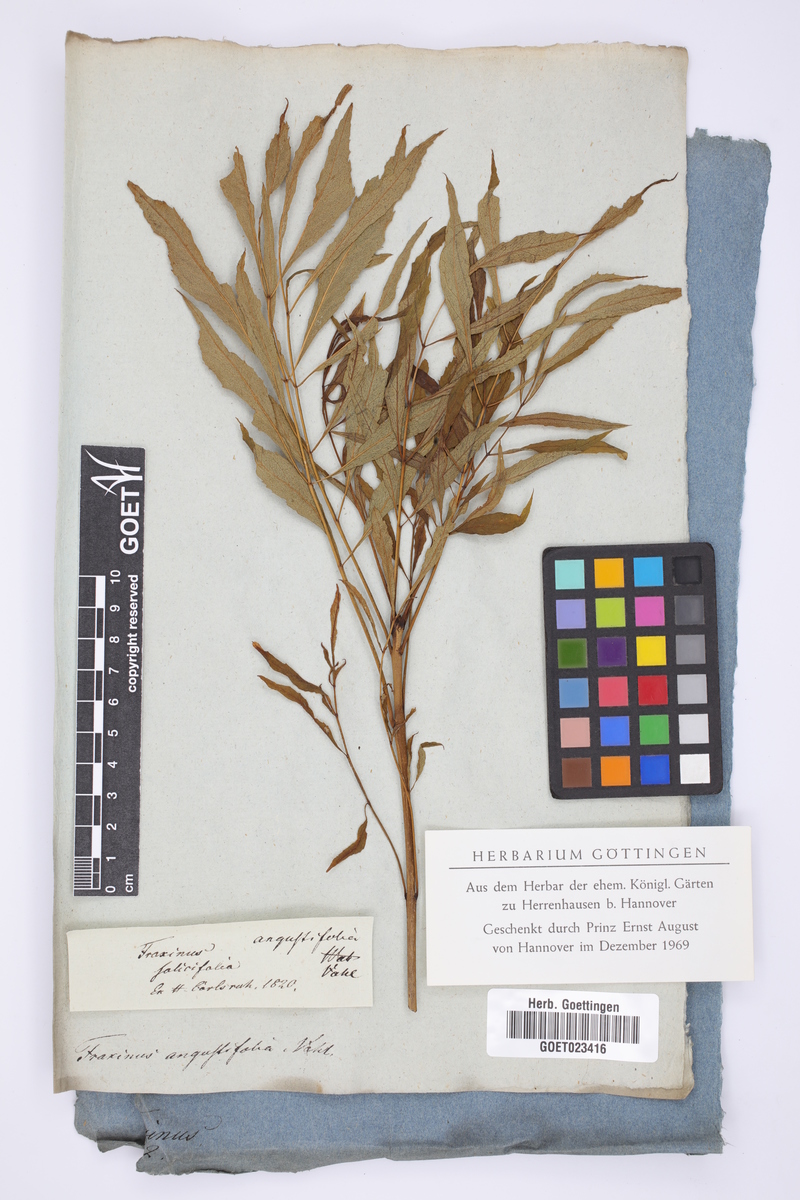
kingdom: Plantae
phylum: Tracheophyta
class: Magnoliopsida
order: Lamiales
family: Oleaceae
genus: Fraxinus
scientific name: Fraxinus angustifolia
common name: Narrow-leafed ash
